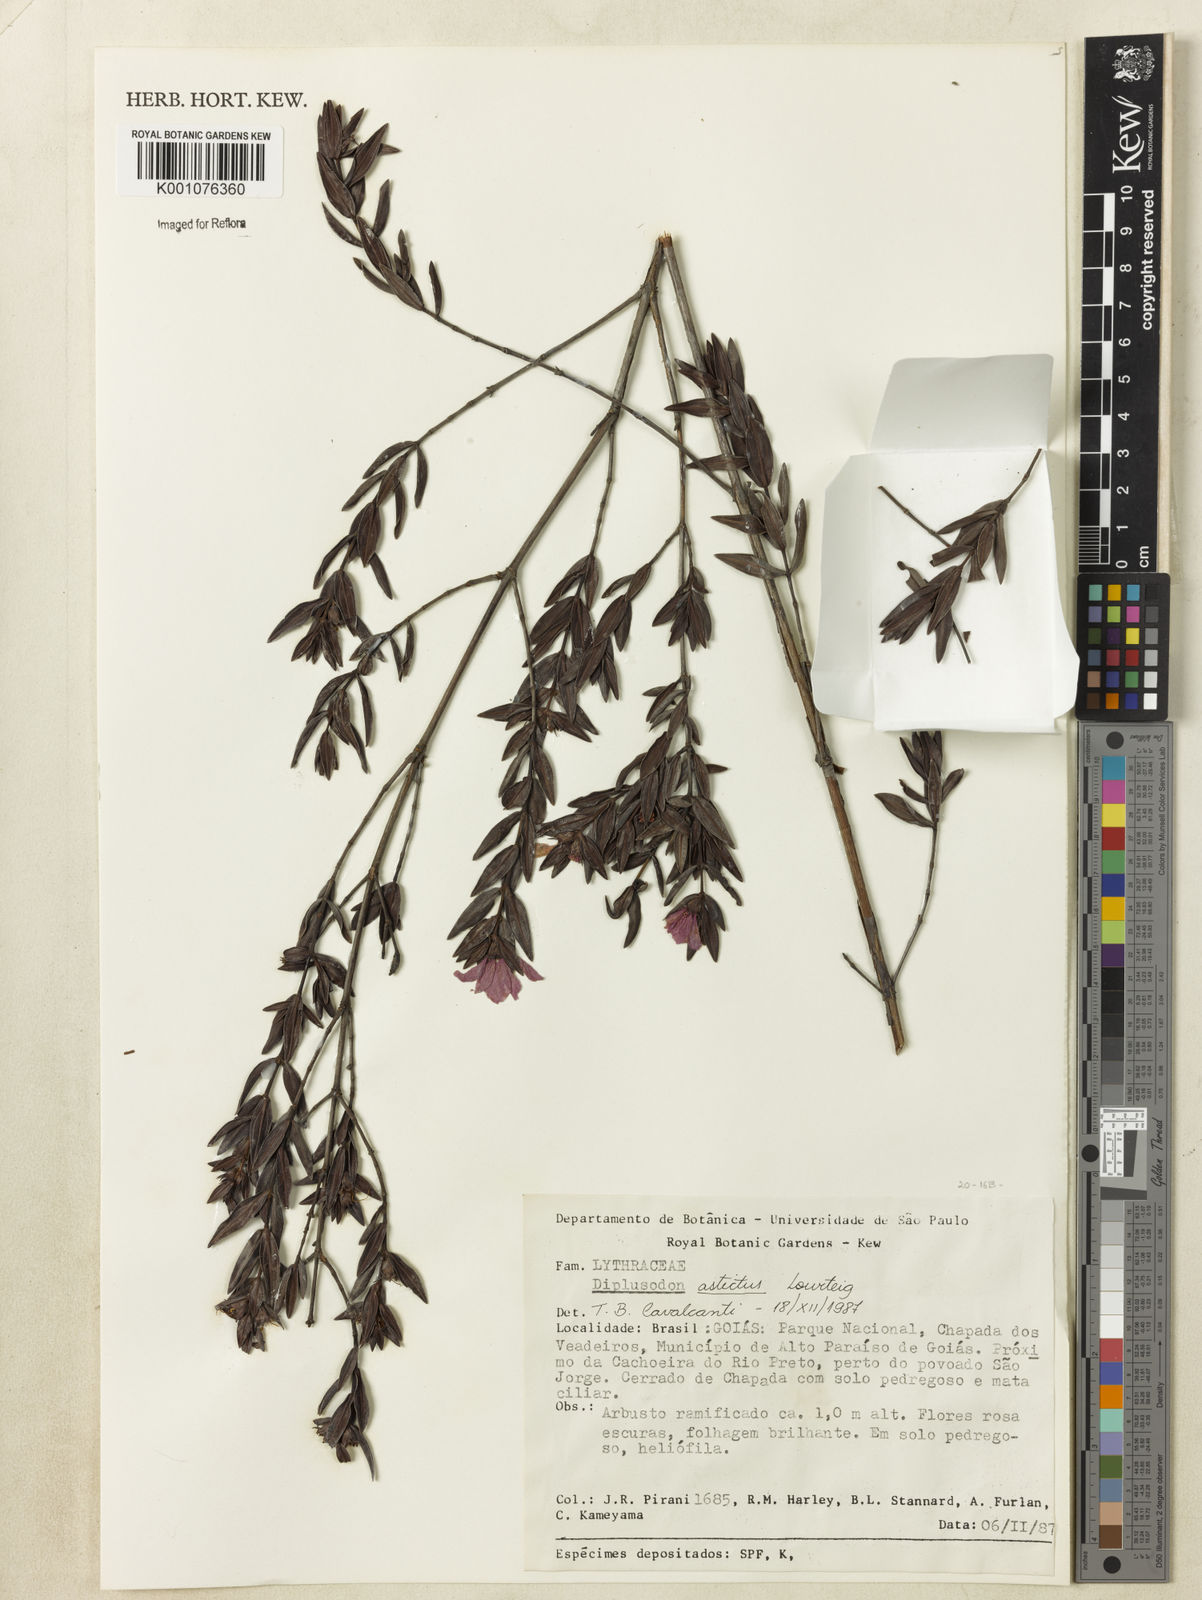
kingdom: Plantae
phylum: Tracheophyta
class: Magnoliopsida
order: Myrtales
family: Lythraceae
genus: Diplusodon
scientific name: Diplusodon astictus
